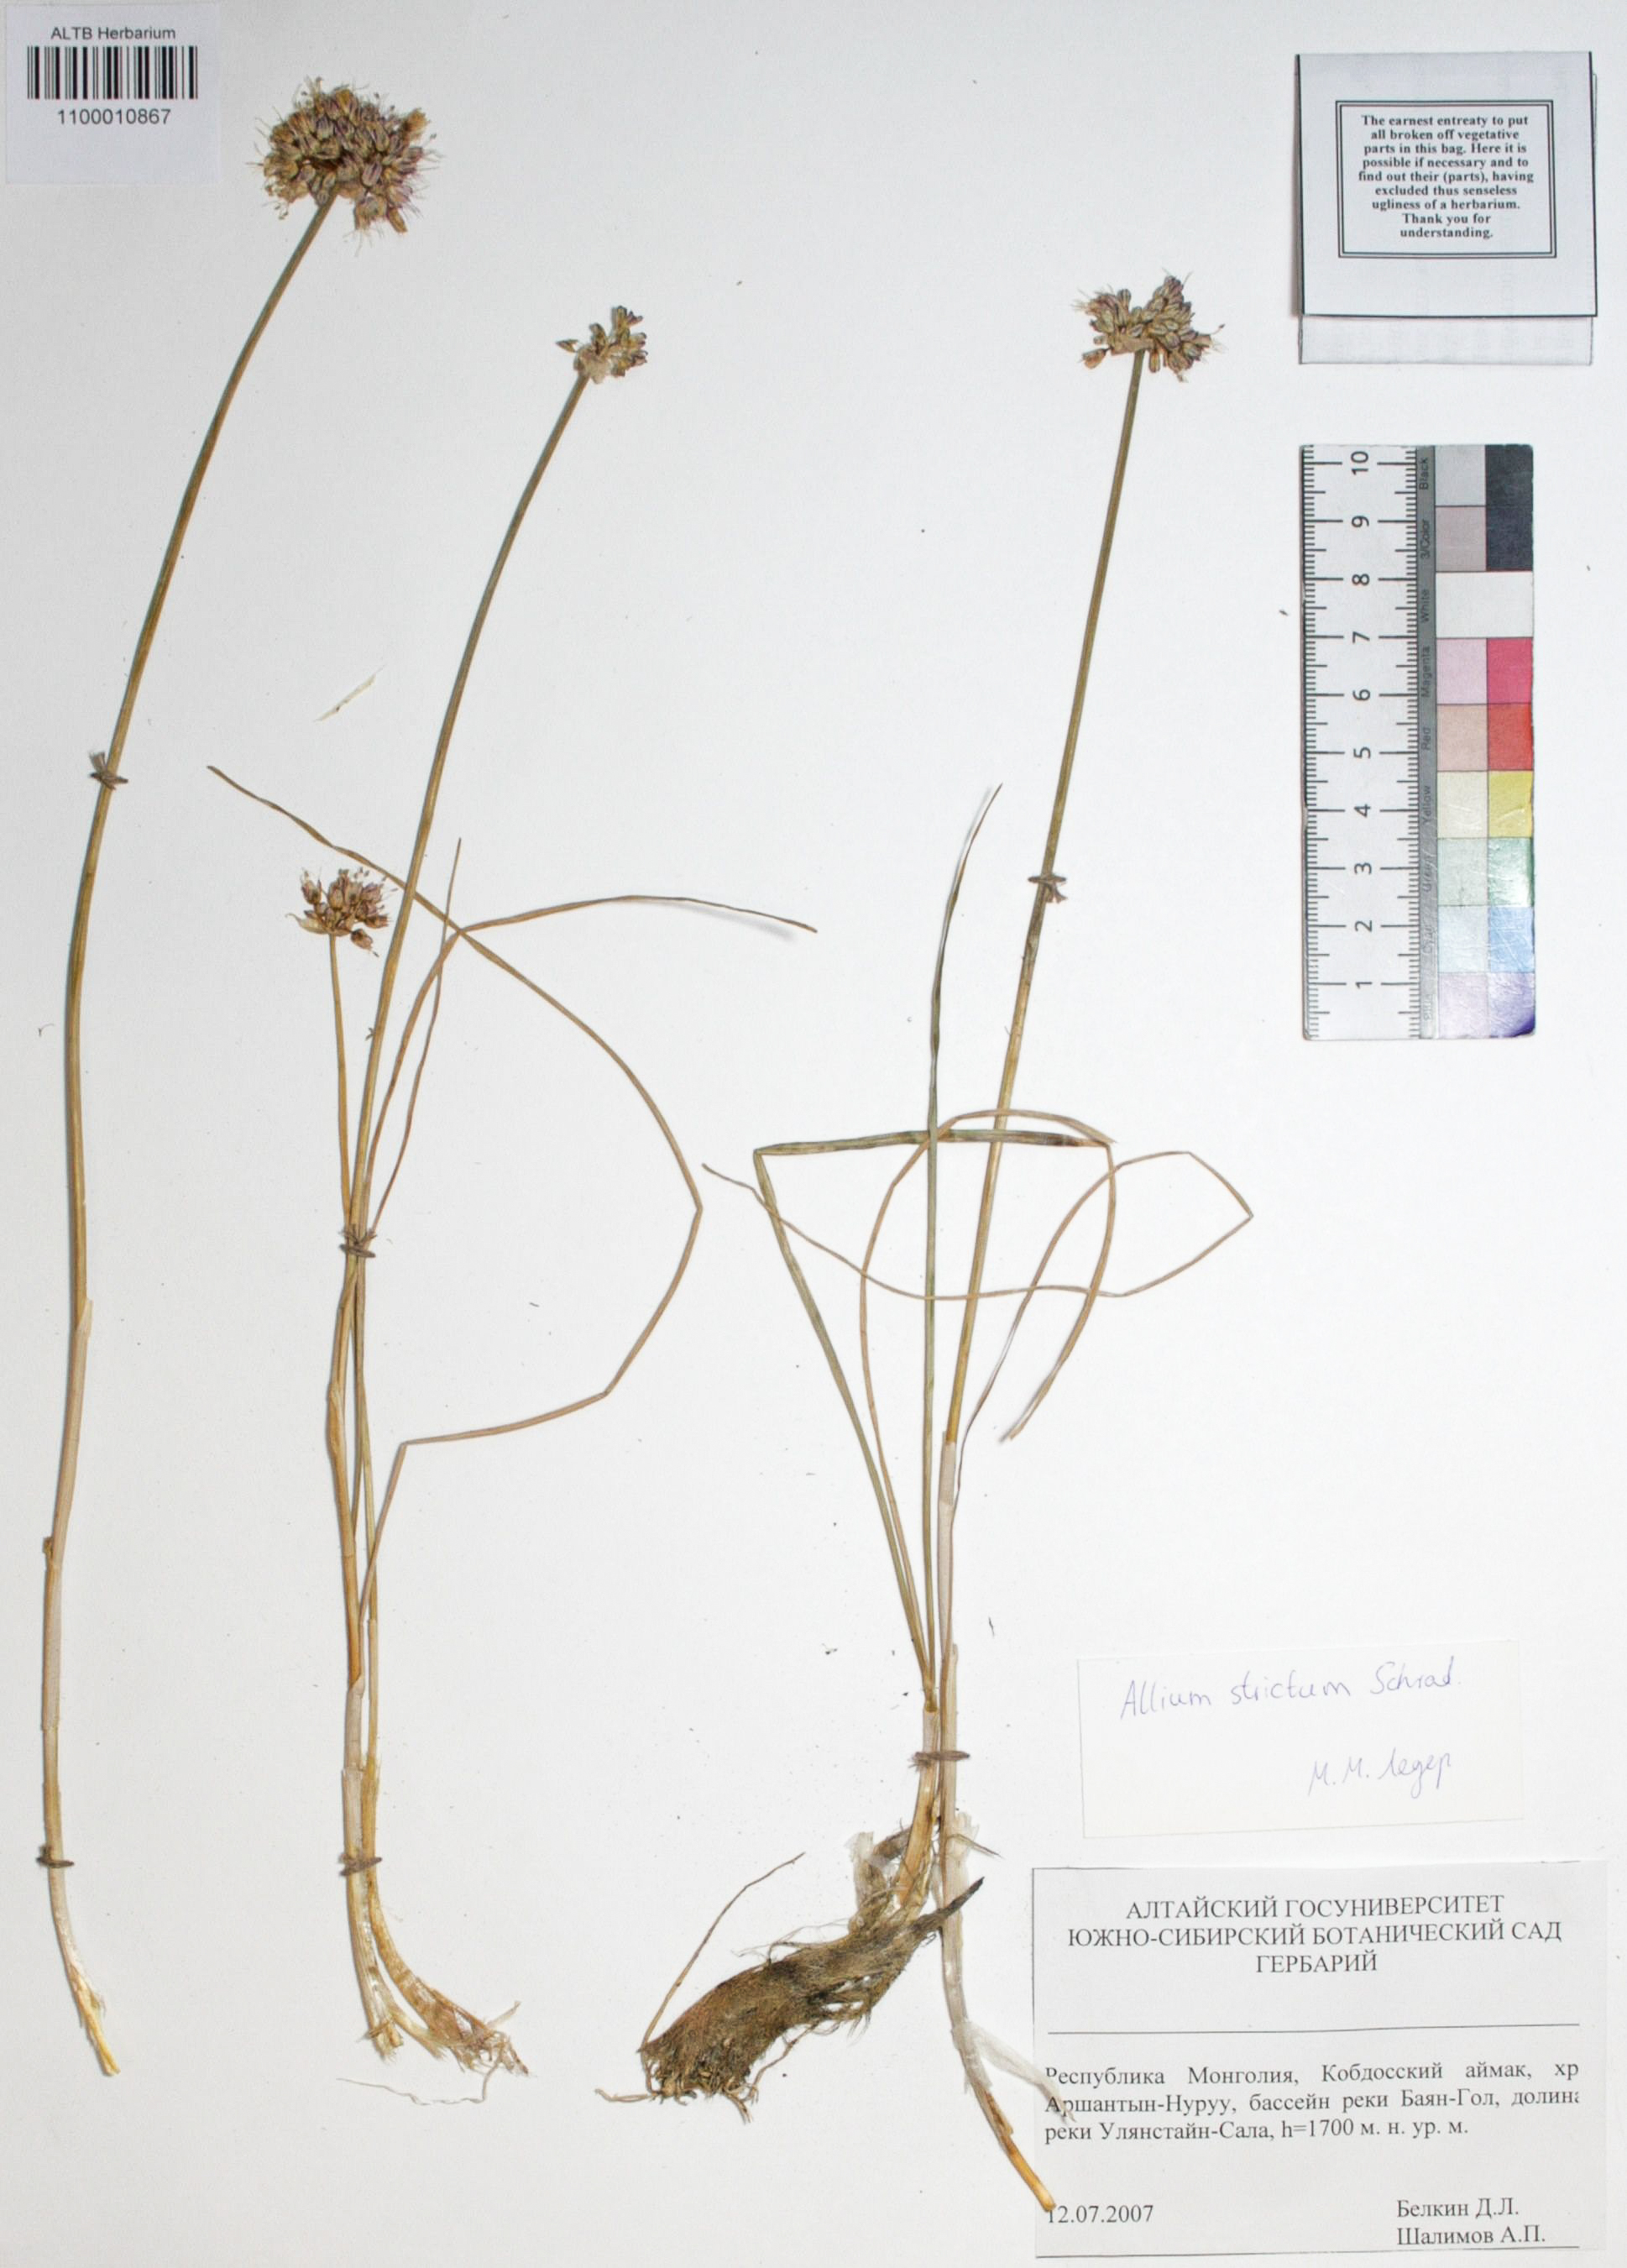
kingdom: Plantae
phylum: Tracheophyta
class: Liliopsida
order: Asparagales
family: Amaryllidaceae
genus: Allium
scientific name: Allium strictum
